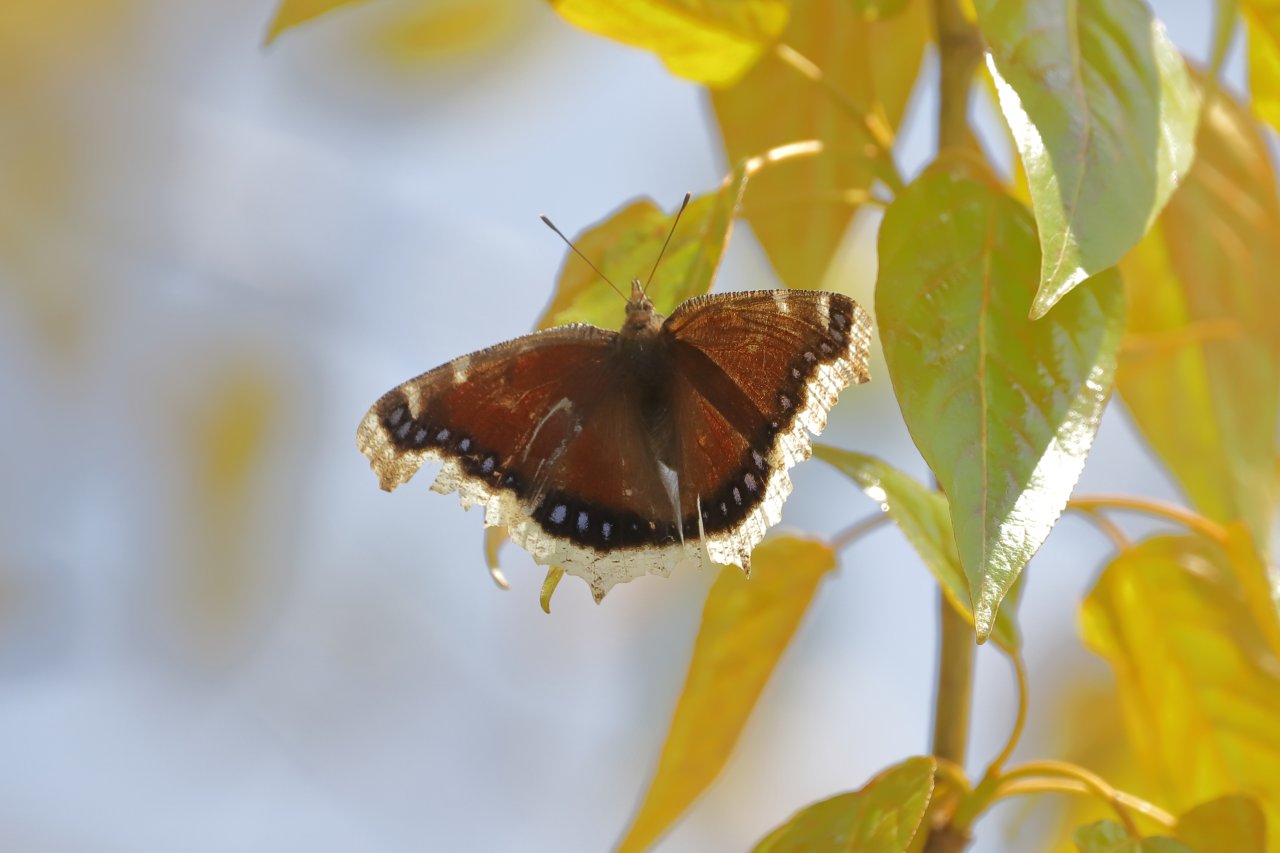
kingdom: Animalia
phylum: Arthropoda
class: Insecta
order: Lepidoptera
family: Nymphalidae
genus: Nymphalis
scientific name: Nymphalis antiopa
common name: Mourning Cloak
